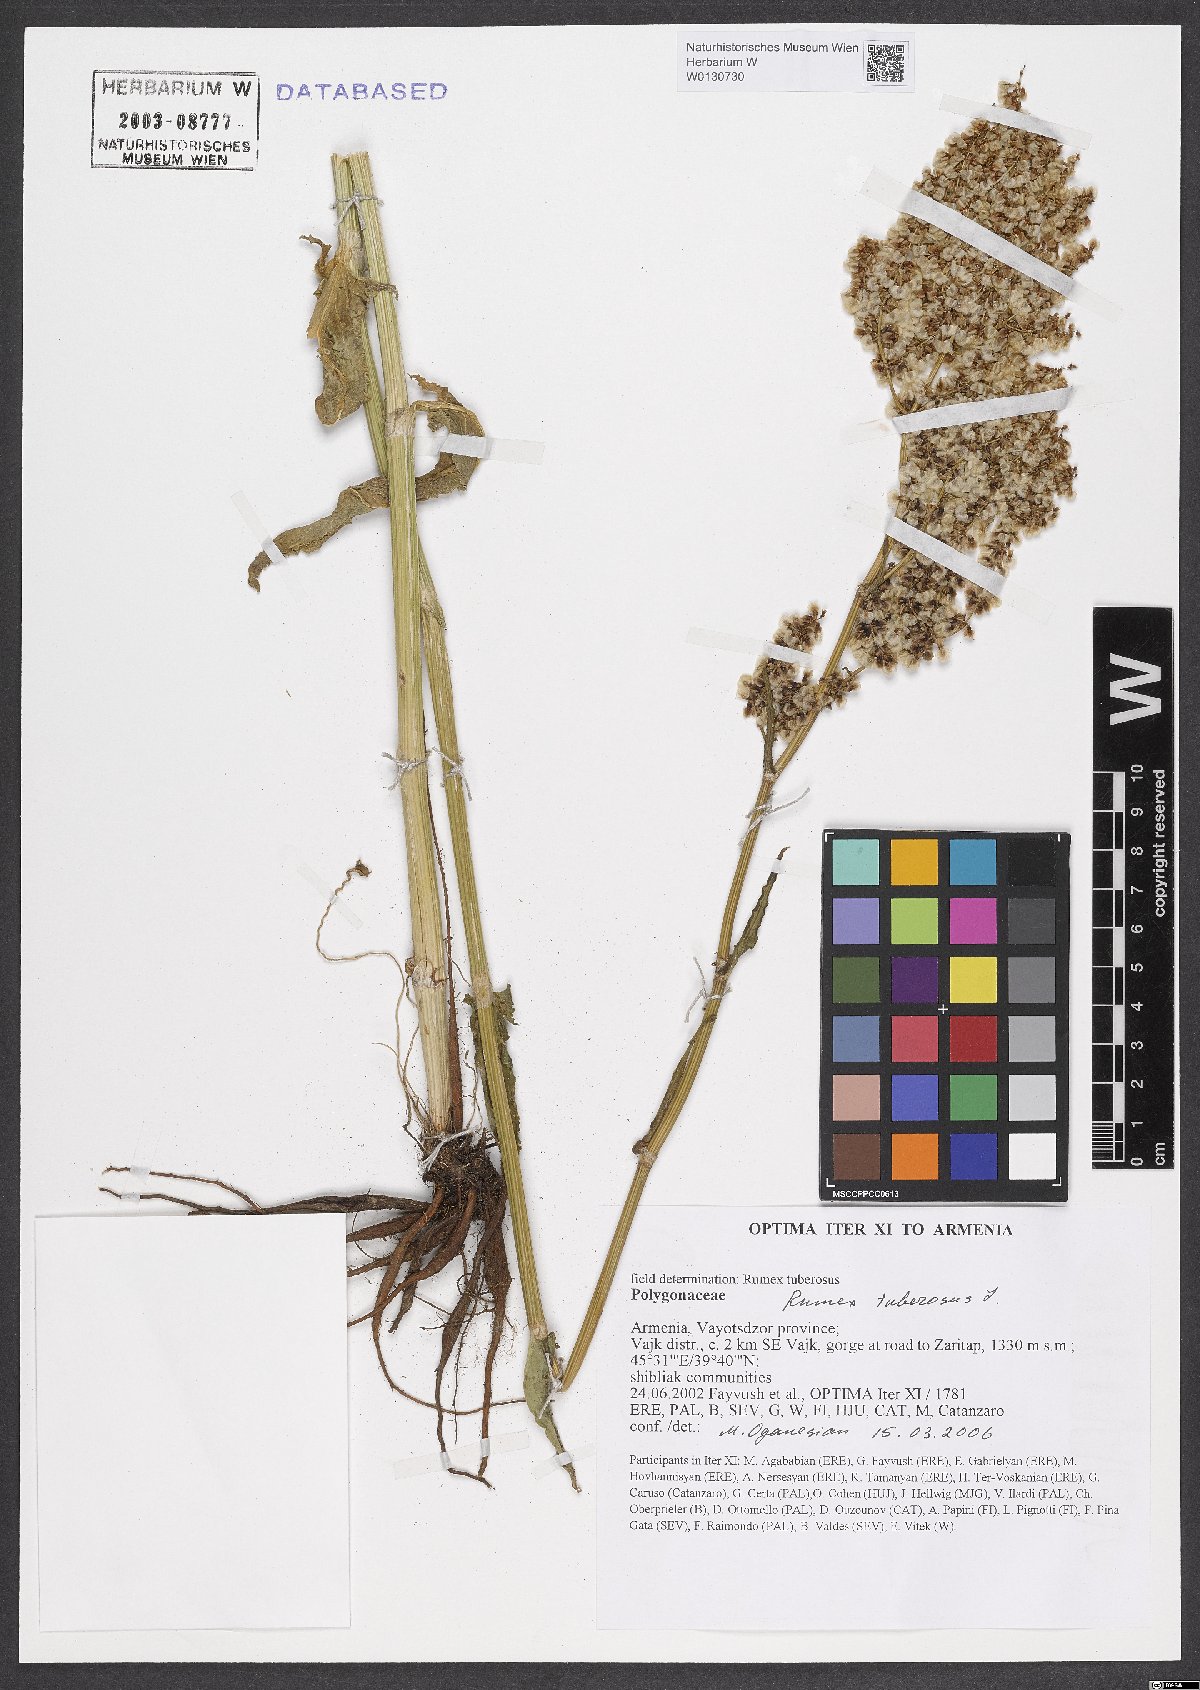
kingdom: Plantae
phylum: Tracheophyta
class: Magnoliopsida
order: Caryophyllales
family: Polygonaceae
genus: Rumex
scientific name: Rumex tuberosus
